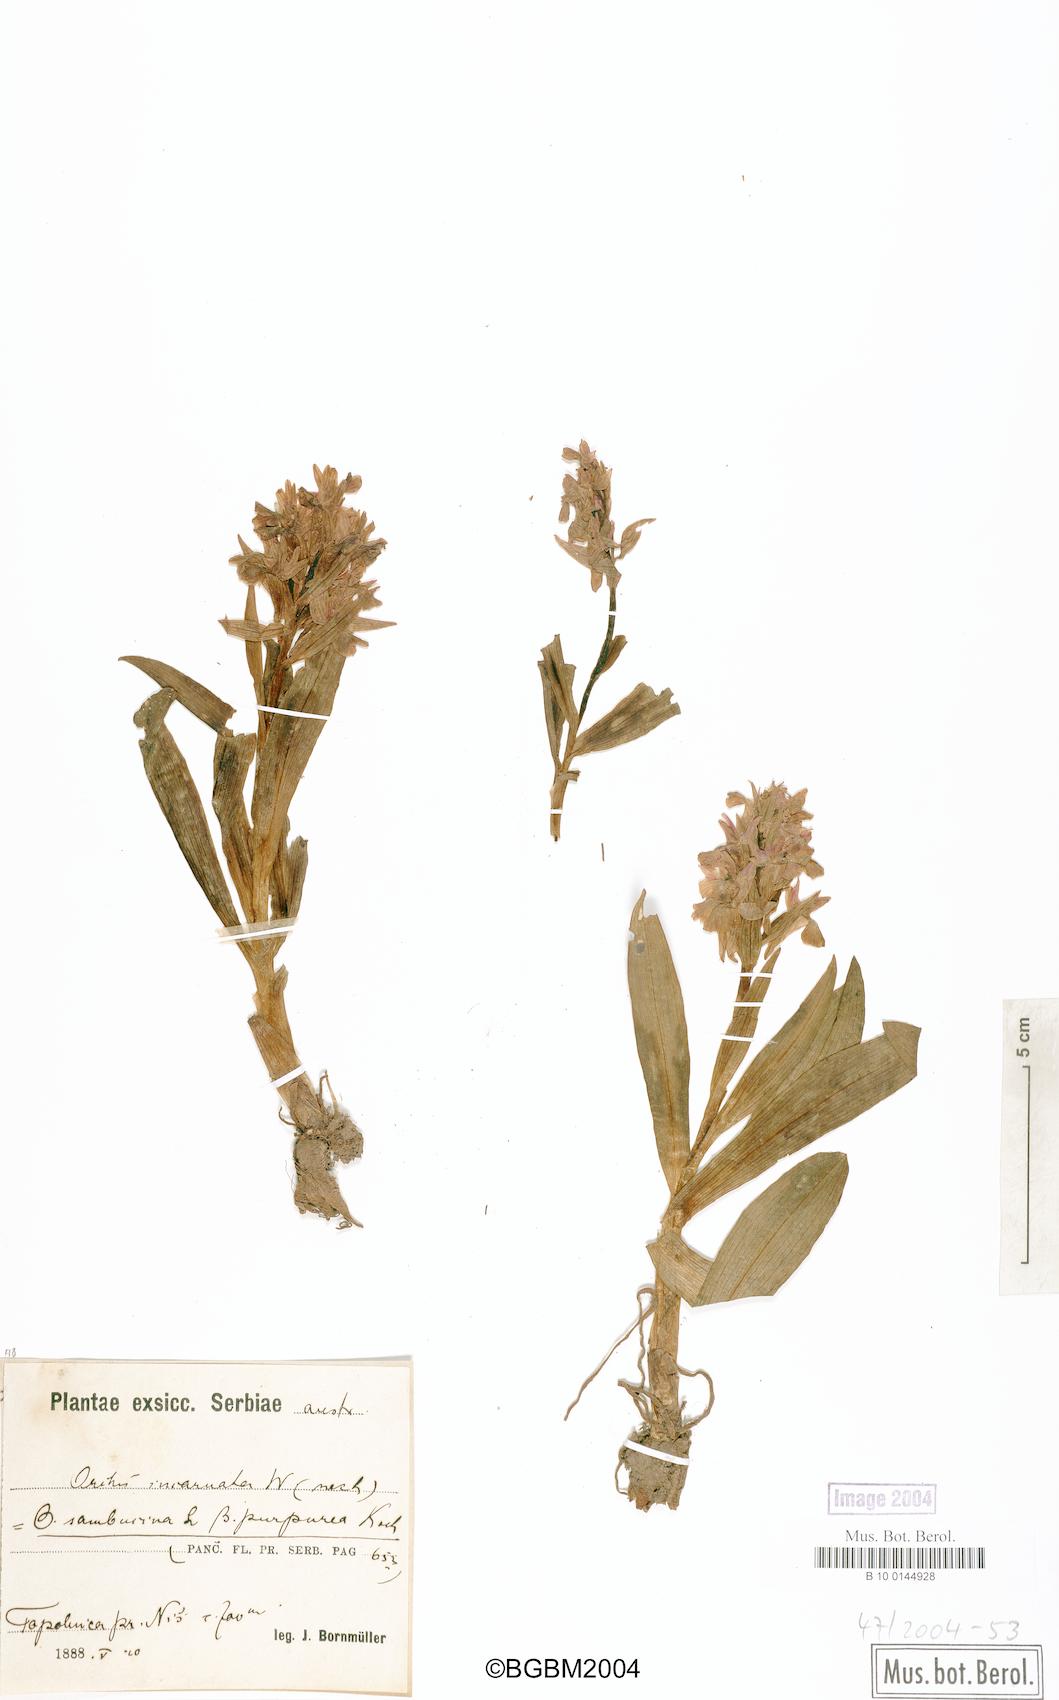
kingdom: Plantae
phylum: Tracheophyta
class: Liliopsida
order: Asparagales
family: Orchidaceae
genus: Dactylorhiza
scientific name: Dactylorhiza incarnata
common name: Early marsh-orchid
